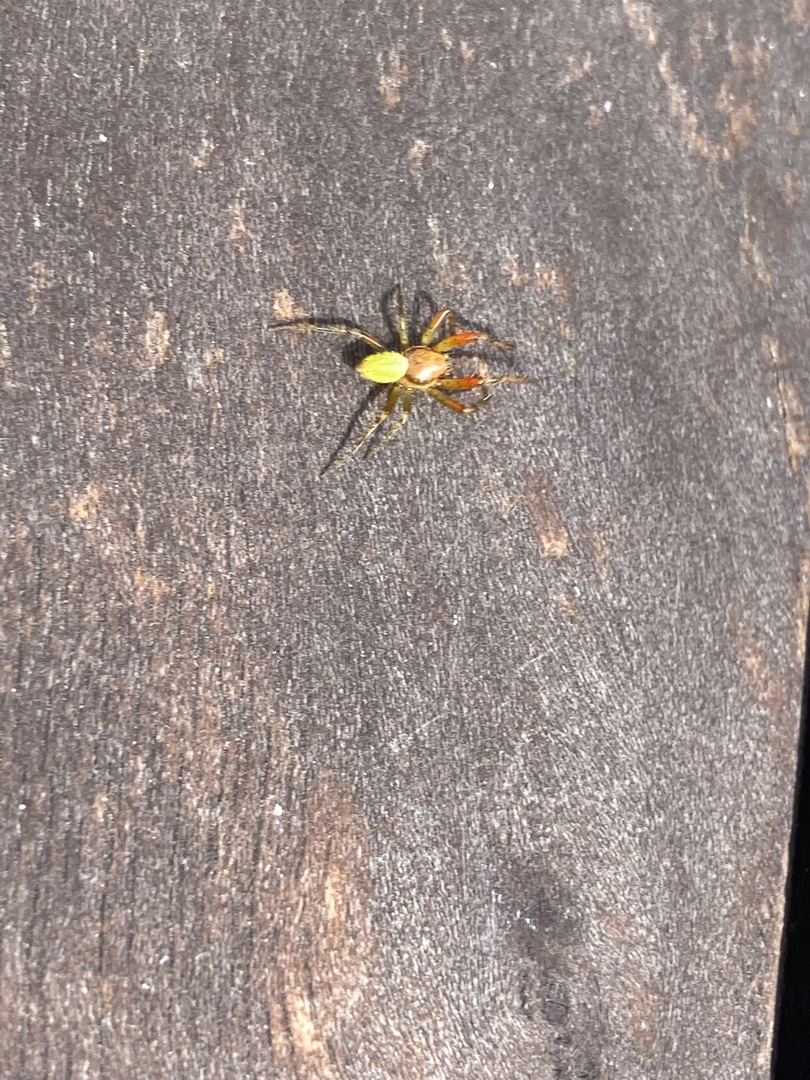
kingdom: Animalia
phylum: Arthropoda
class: Arachnida
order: Araneae
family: Araneidae
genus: Araniella
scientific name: Araniella
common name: Agurkeedderkopslægten
